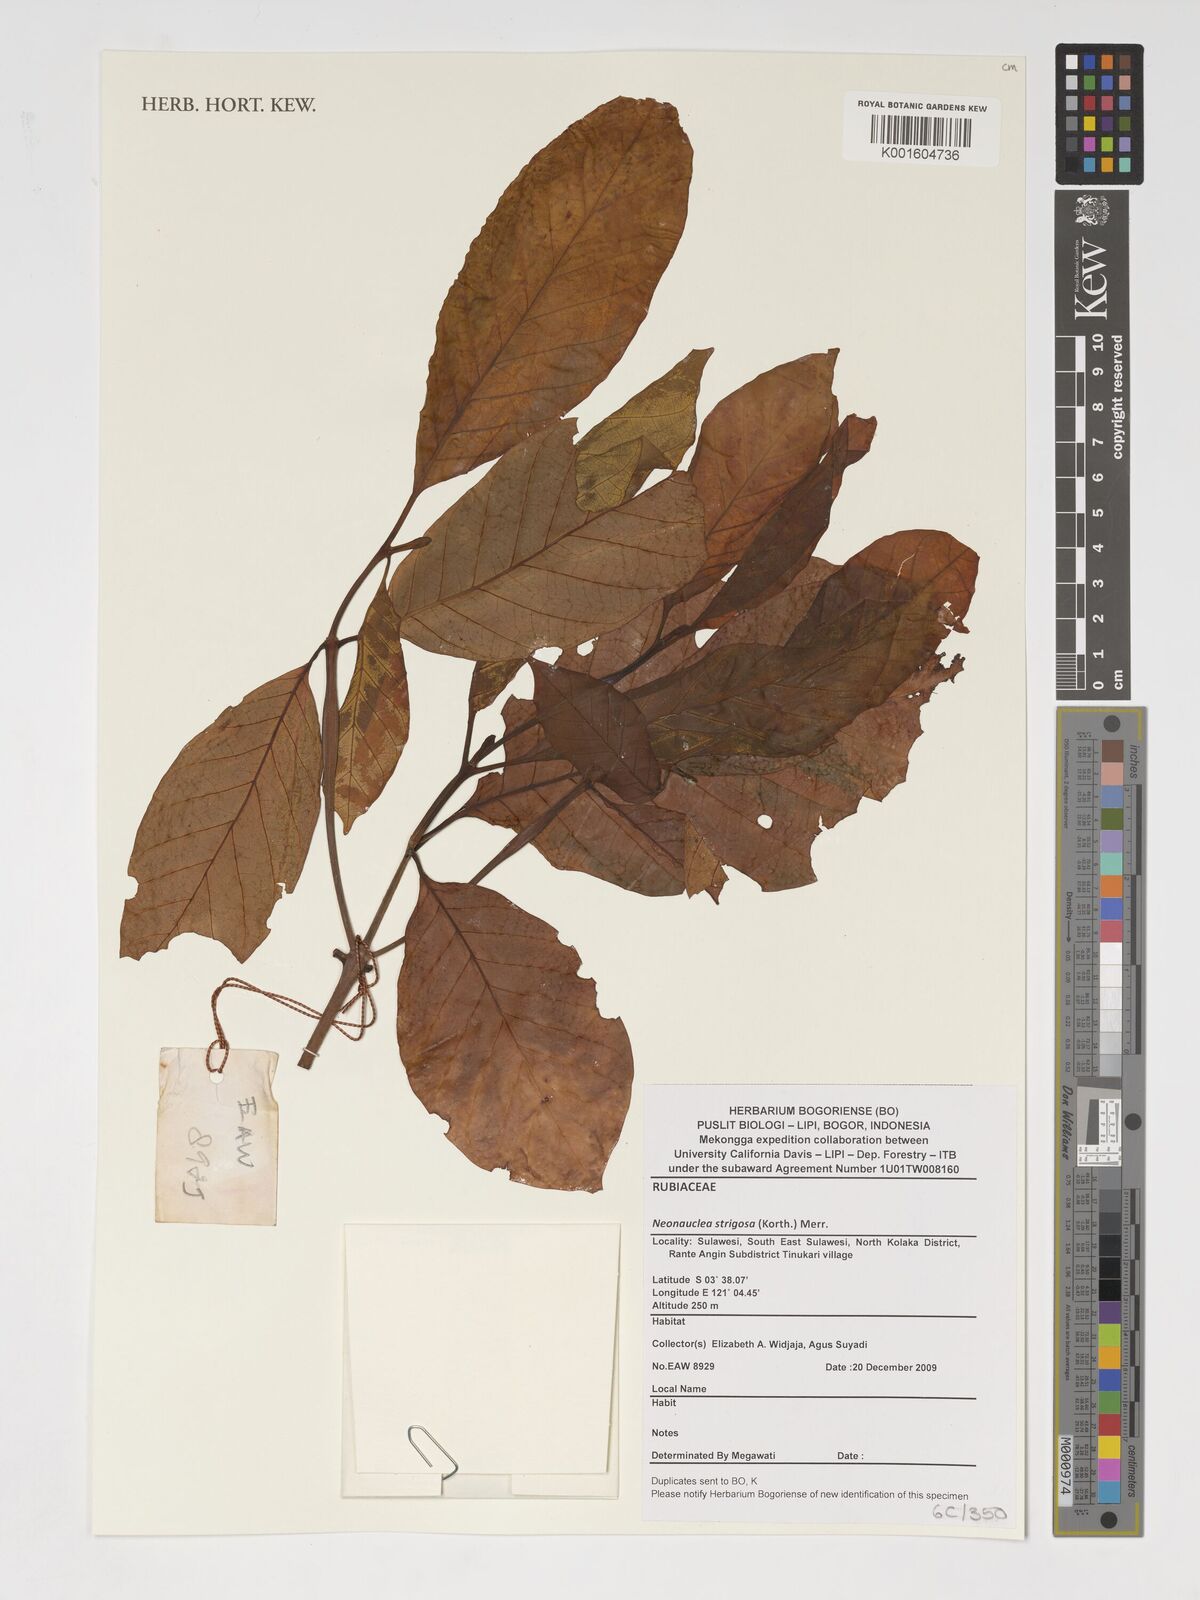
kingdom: Plantae
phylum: Tracheophyta
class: Magnoliopsida
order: Gentianales
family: Rubiaceae
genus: Myrmeconauclea
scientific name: Myrmeconauclea strigosa
